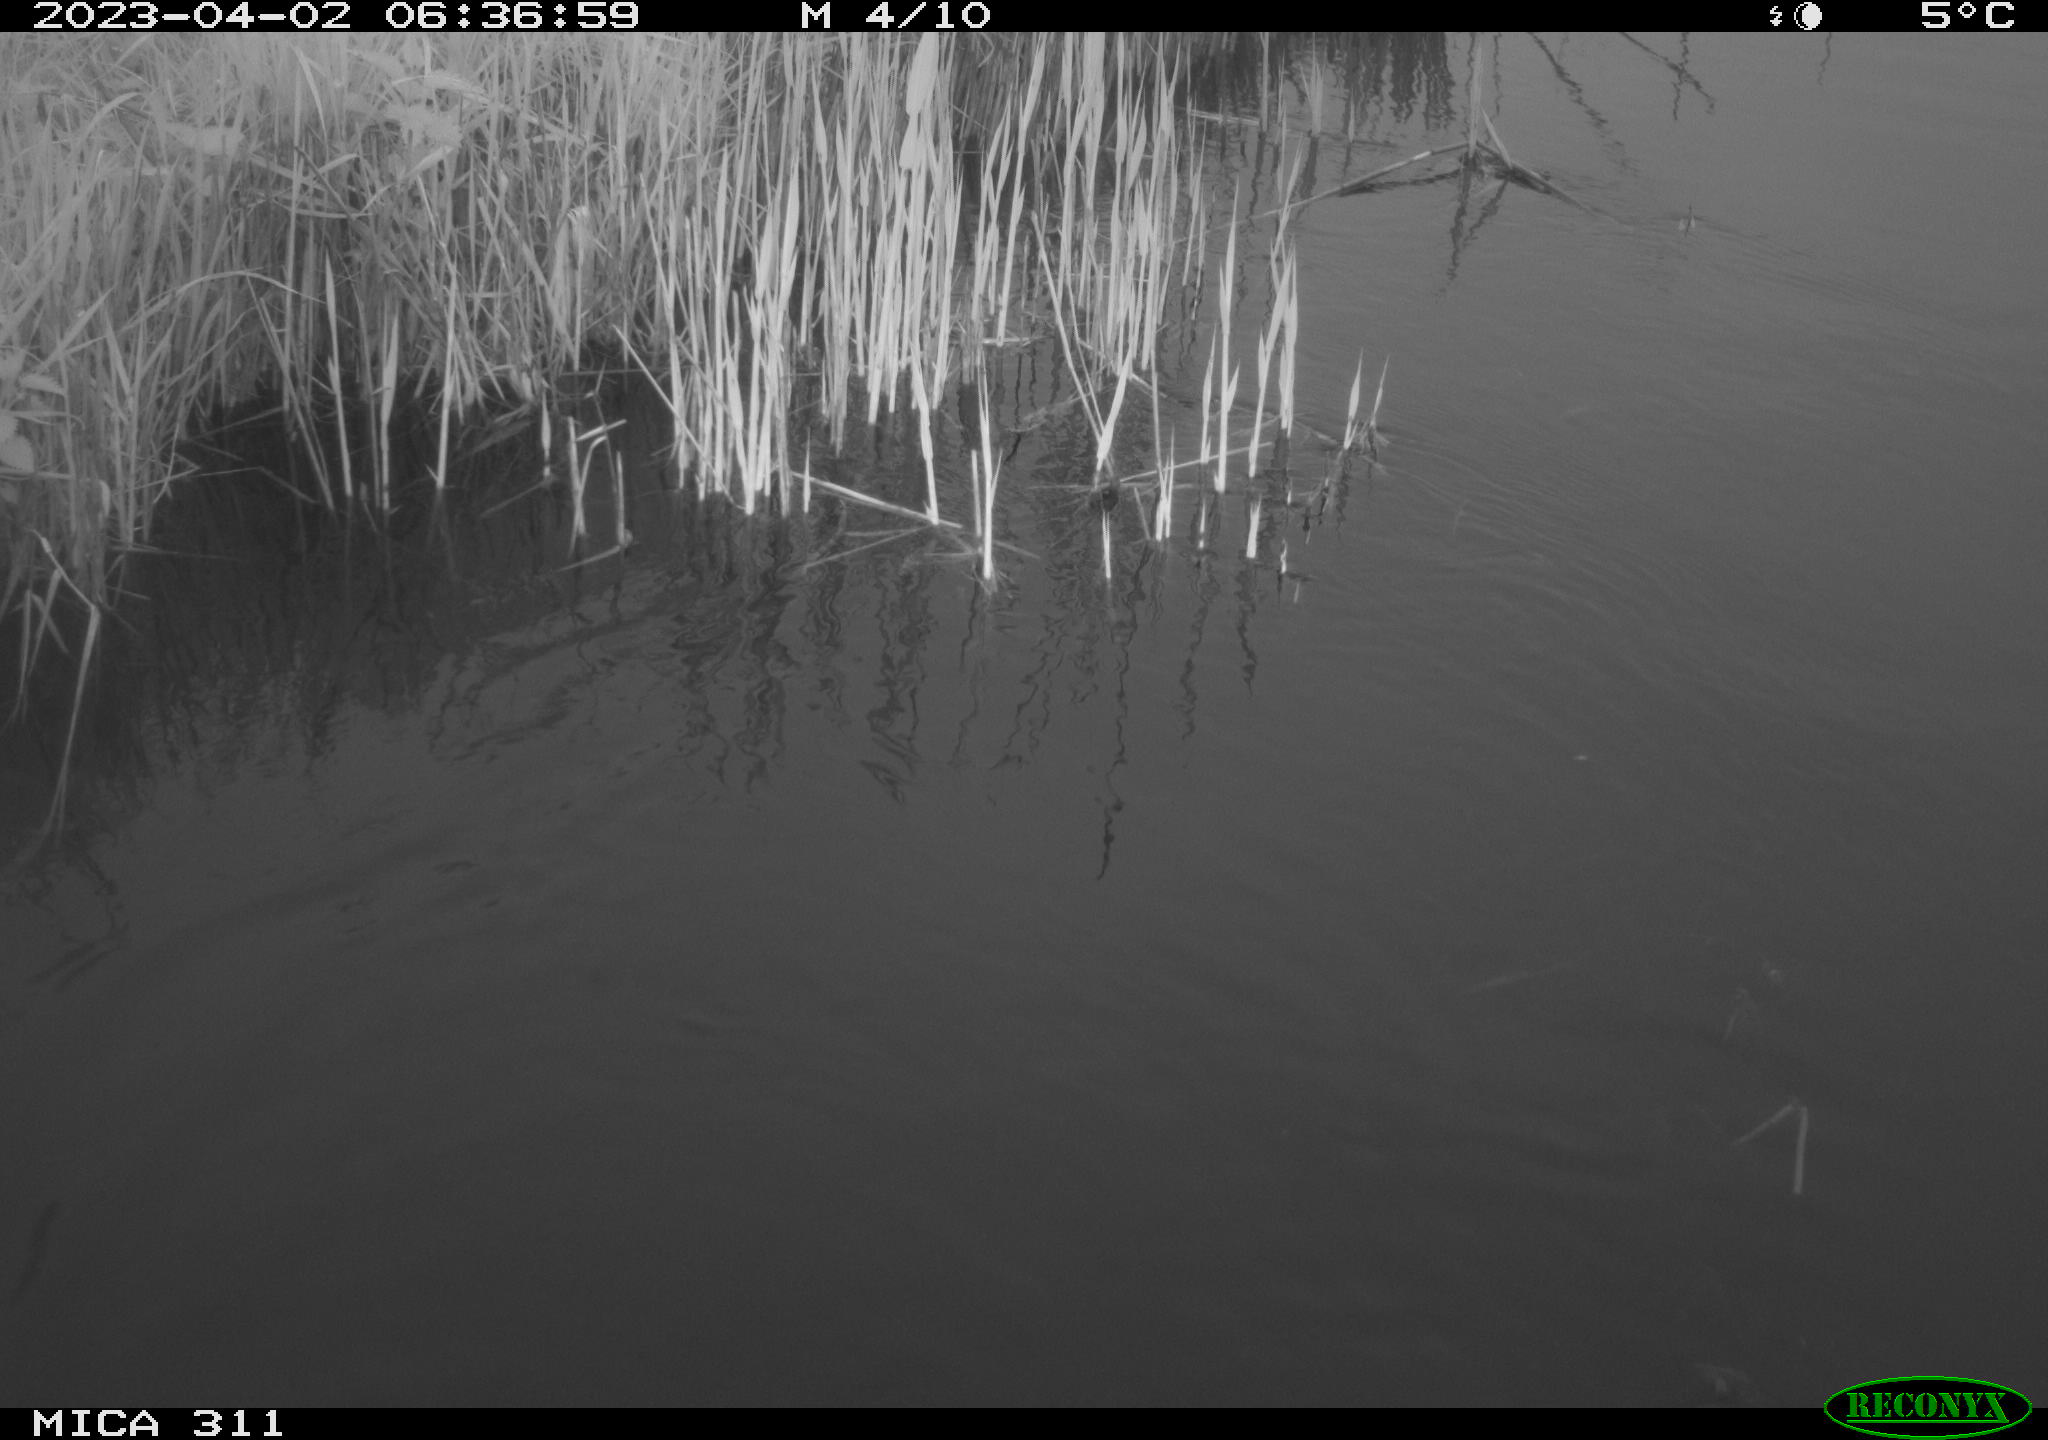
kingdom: Animalia
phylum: Chordata
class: Aves
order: Gruiformes
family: Rallidae
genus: Gallinula
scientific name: Gallinula chloropus
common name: Common moorhen
